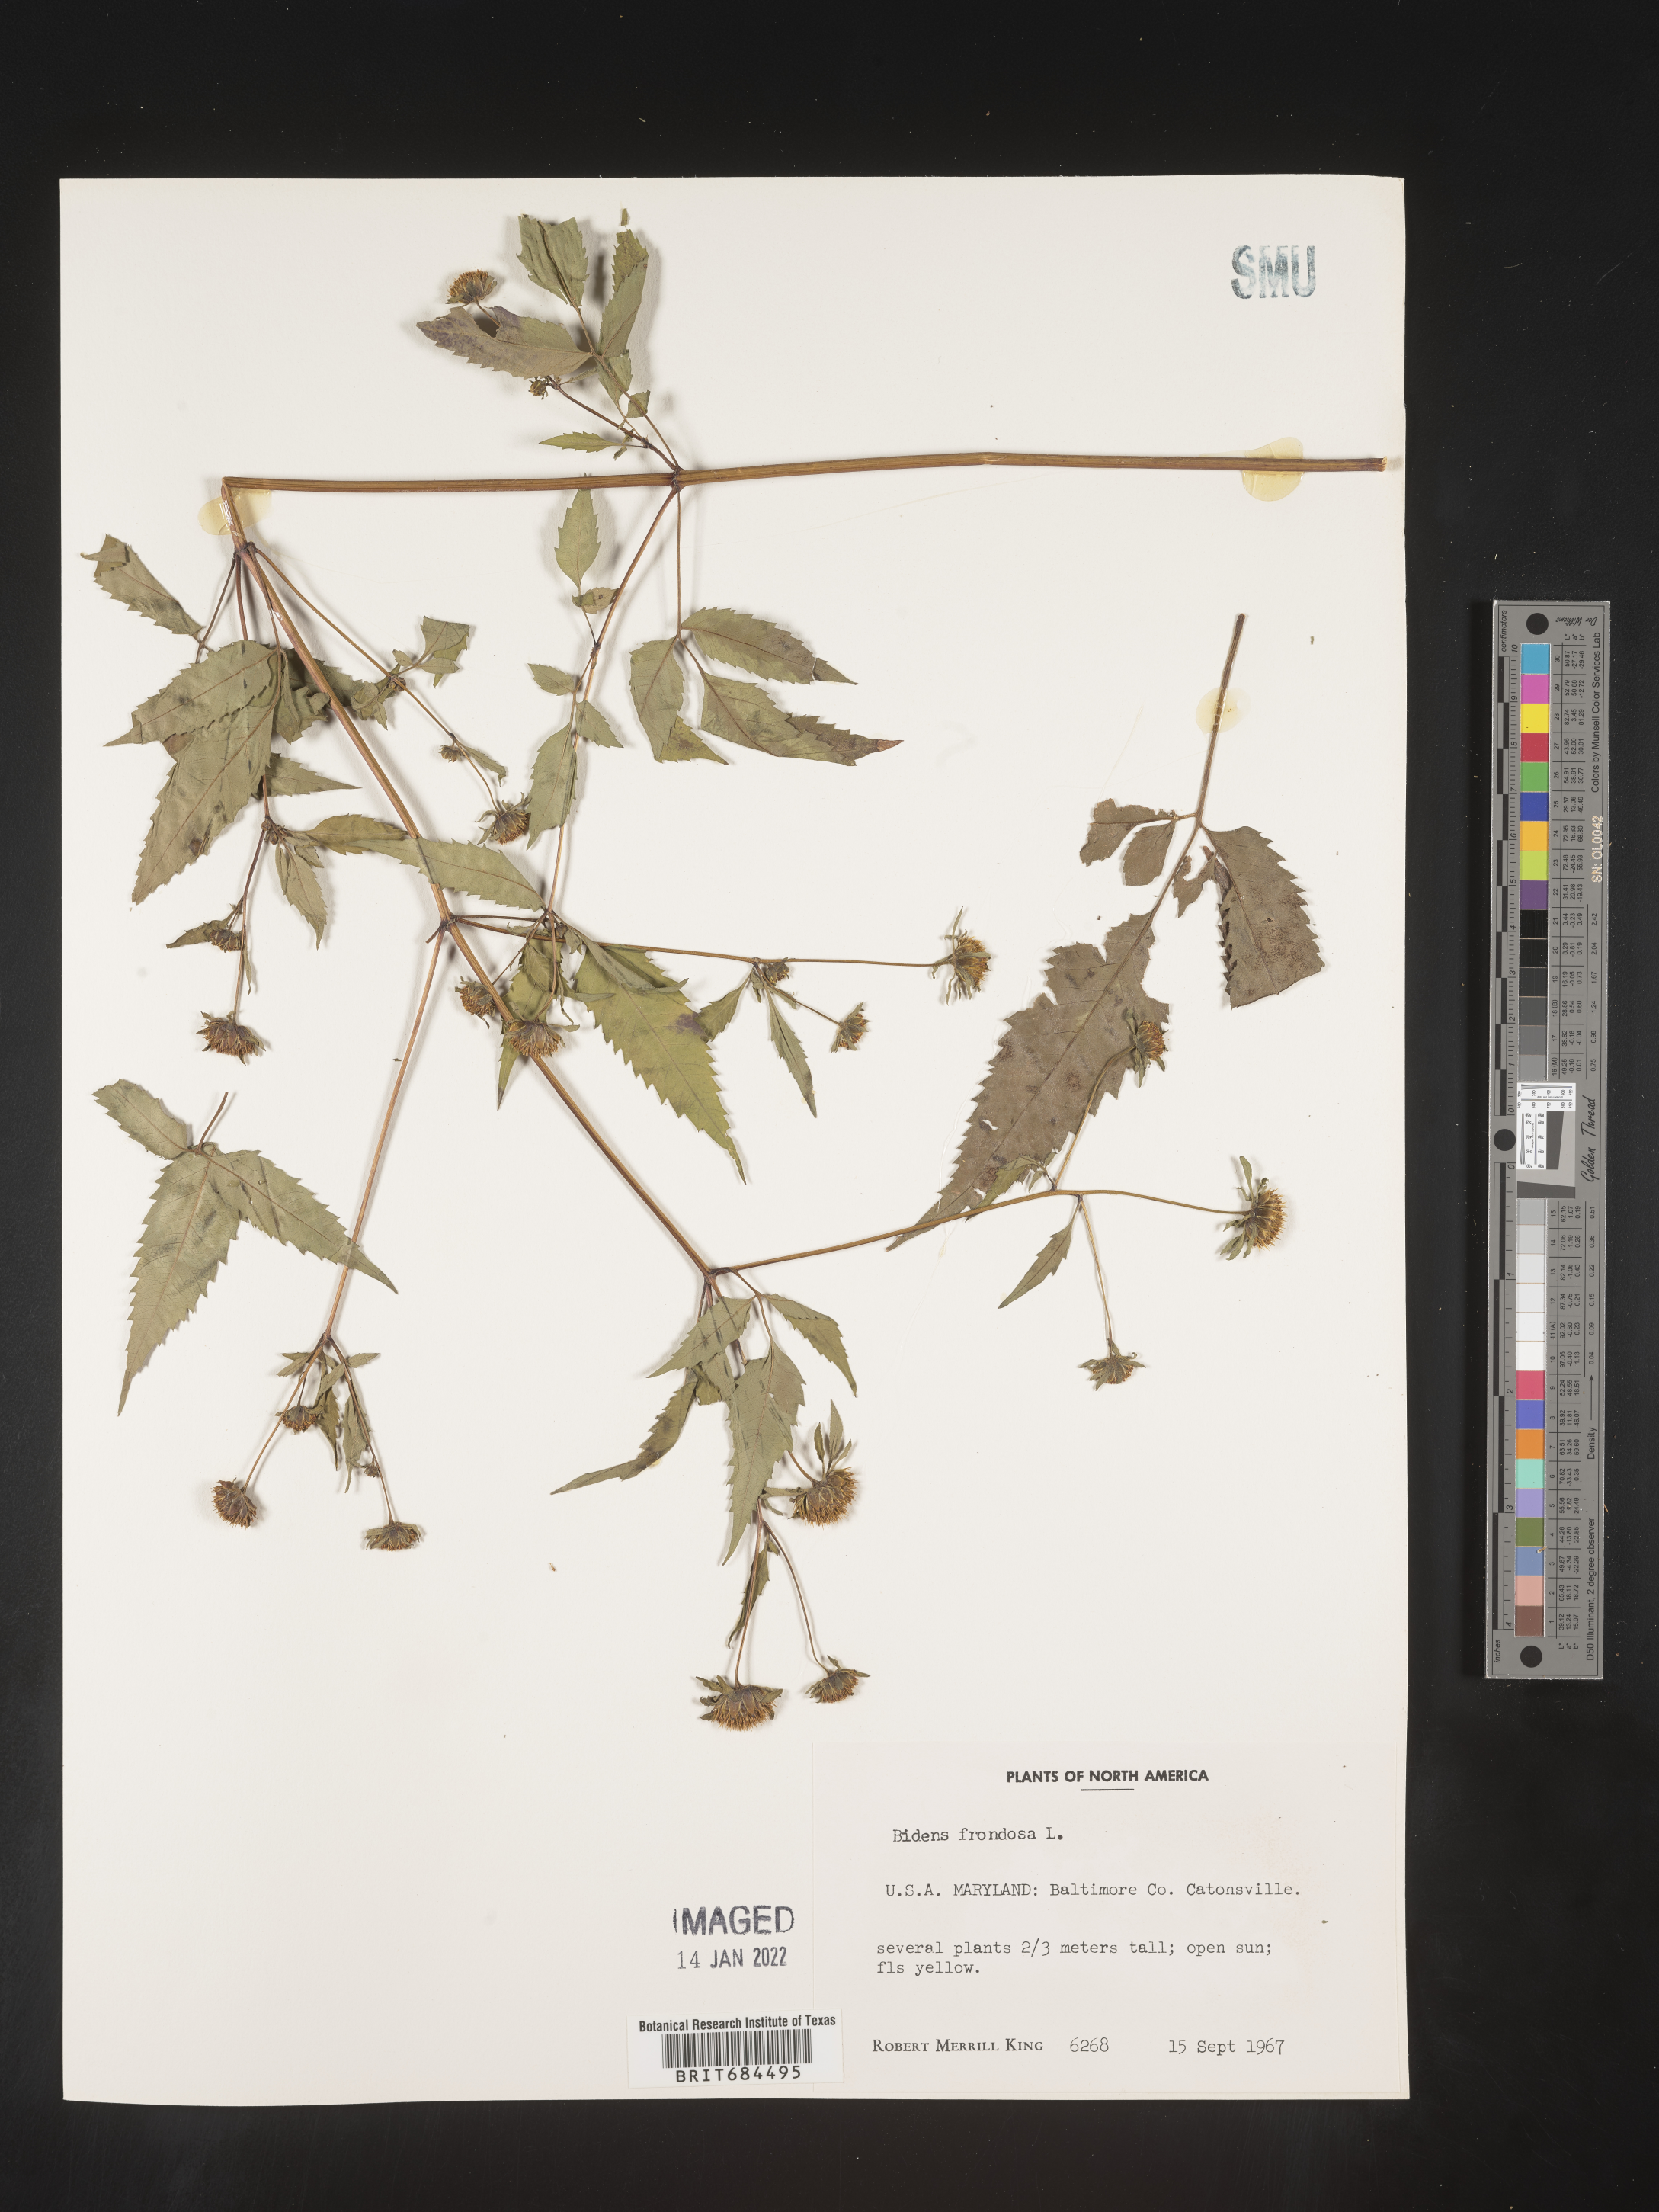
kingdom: Plantae
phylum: Tracheophyta
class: Magnoliopsida
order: Asterales
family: Asteraceae
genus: Bidens
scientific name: Bidens frondosa
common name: Beggarticks
